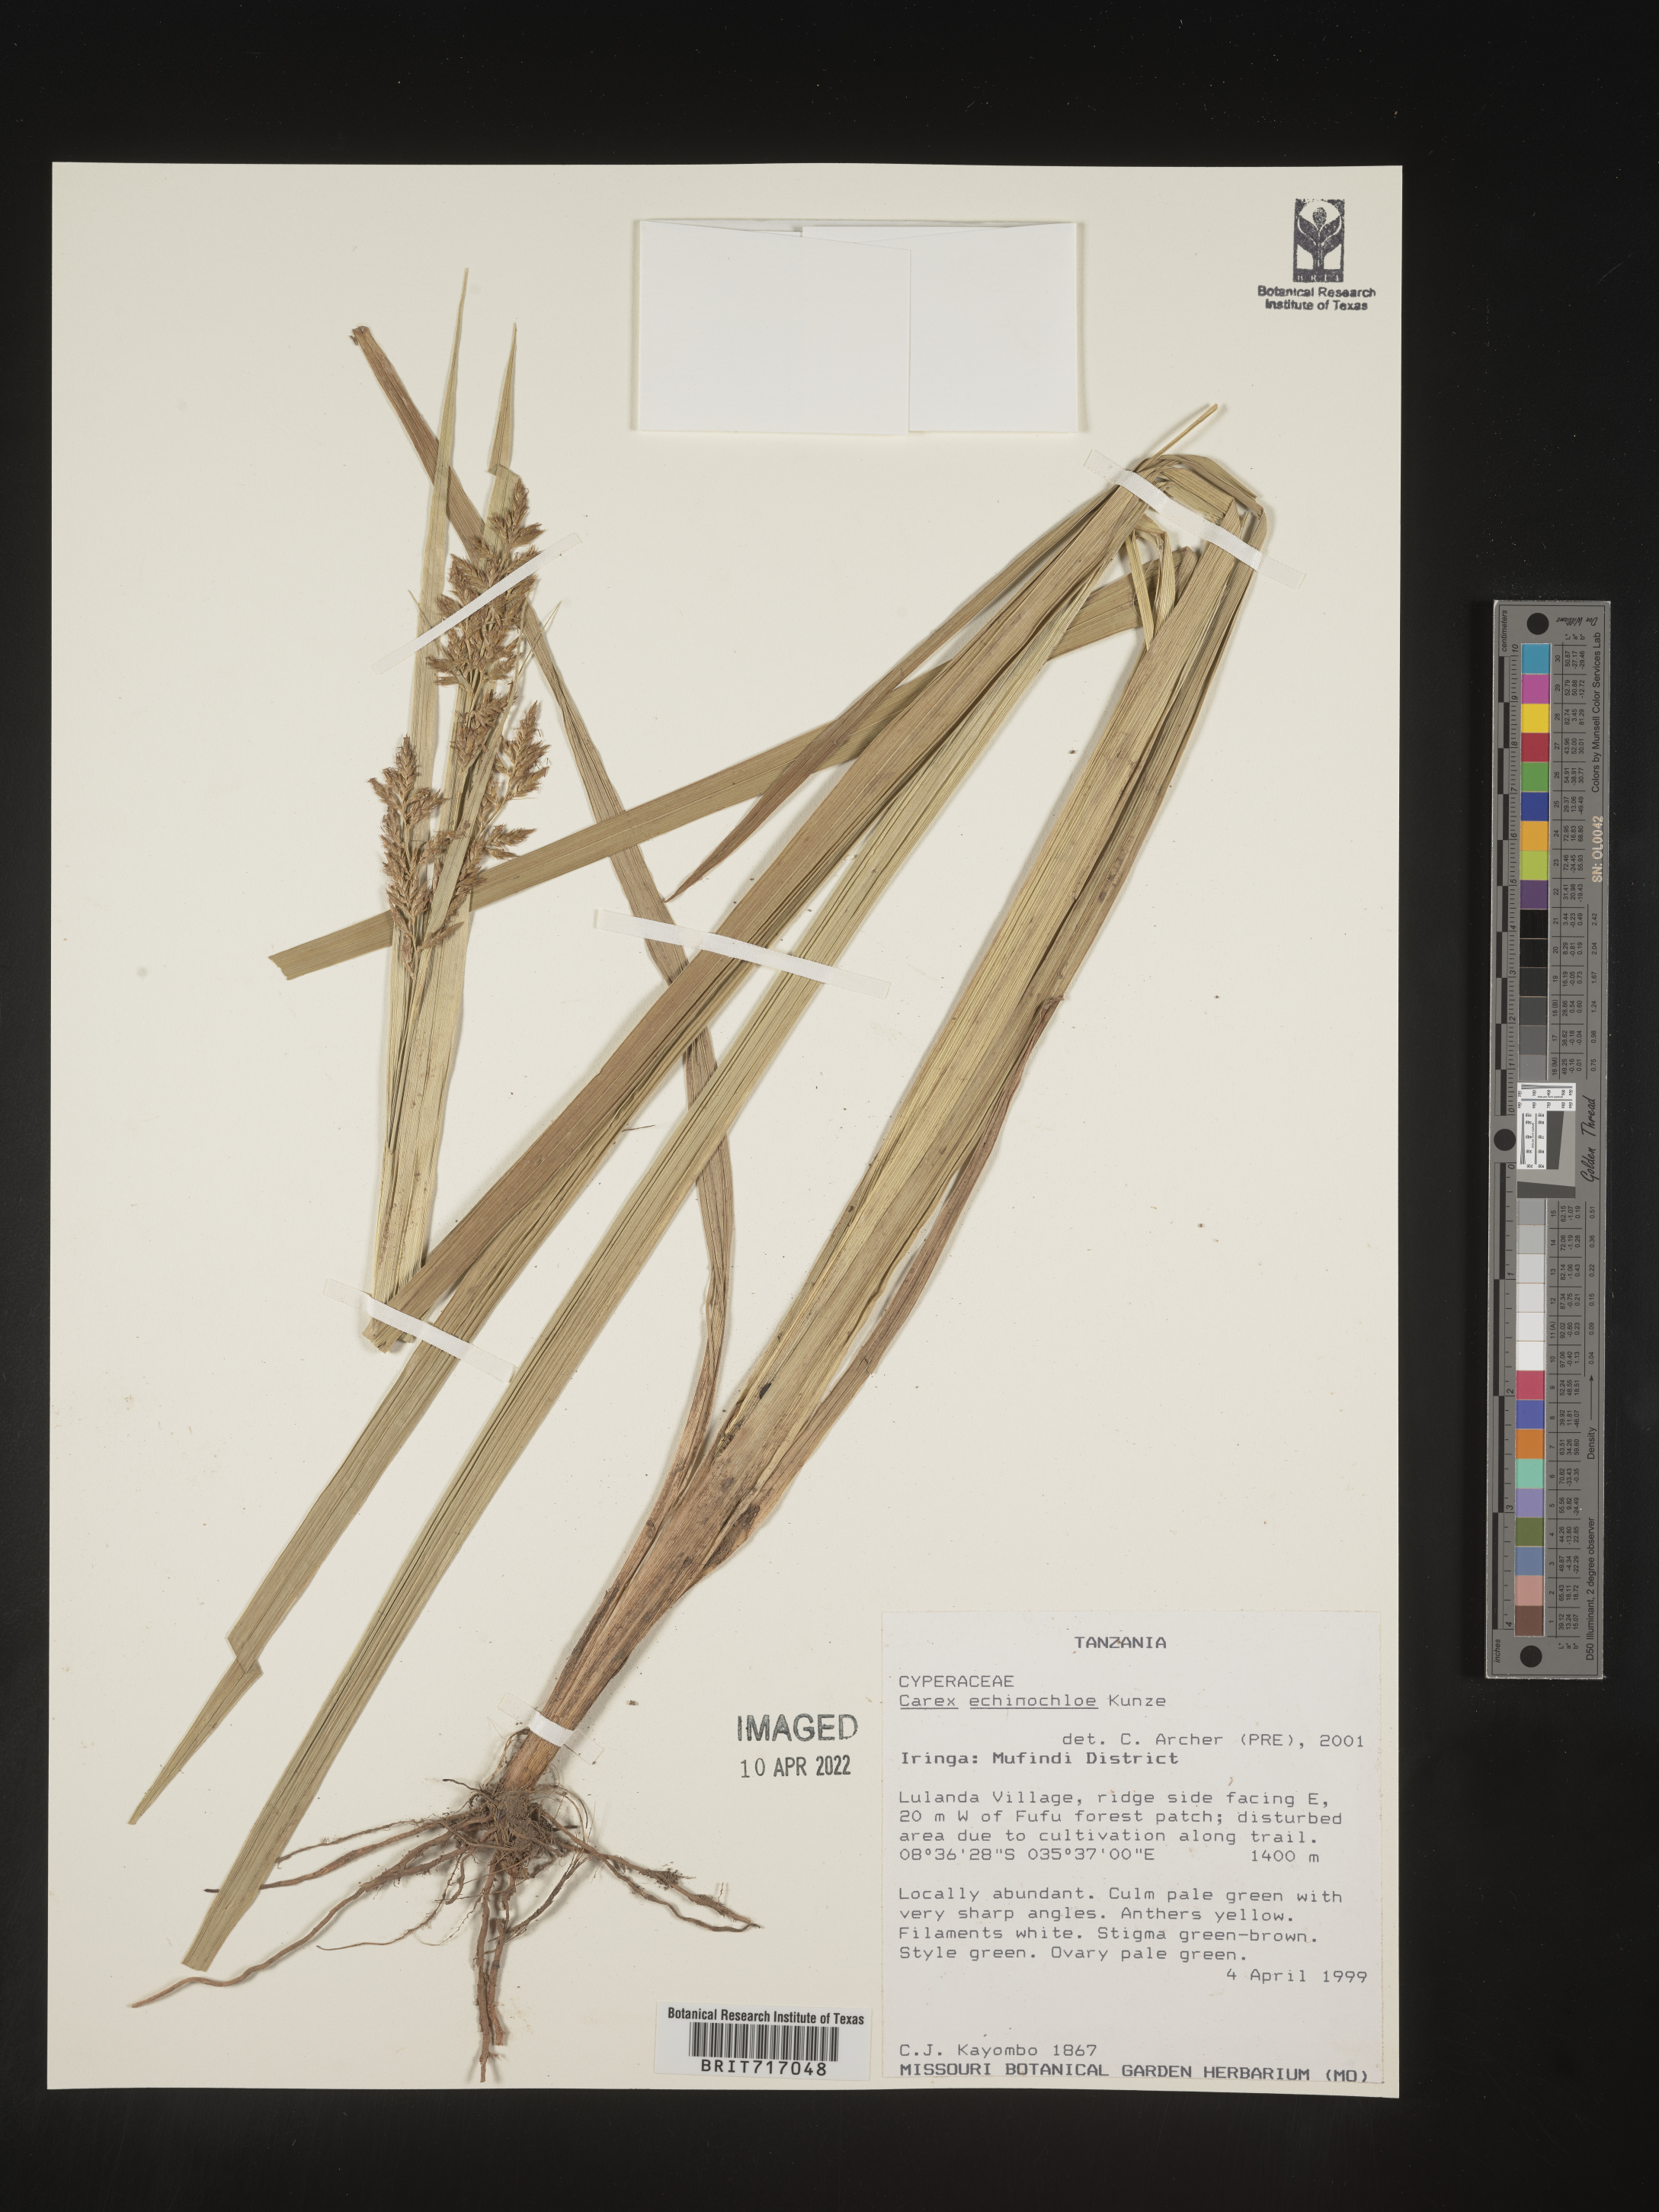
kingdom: Plantae
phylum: Tracheophyta
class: Liliopsida
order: Poales
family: Cyperaceae
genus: Carex
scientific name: Carex
